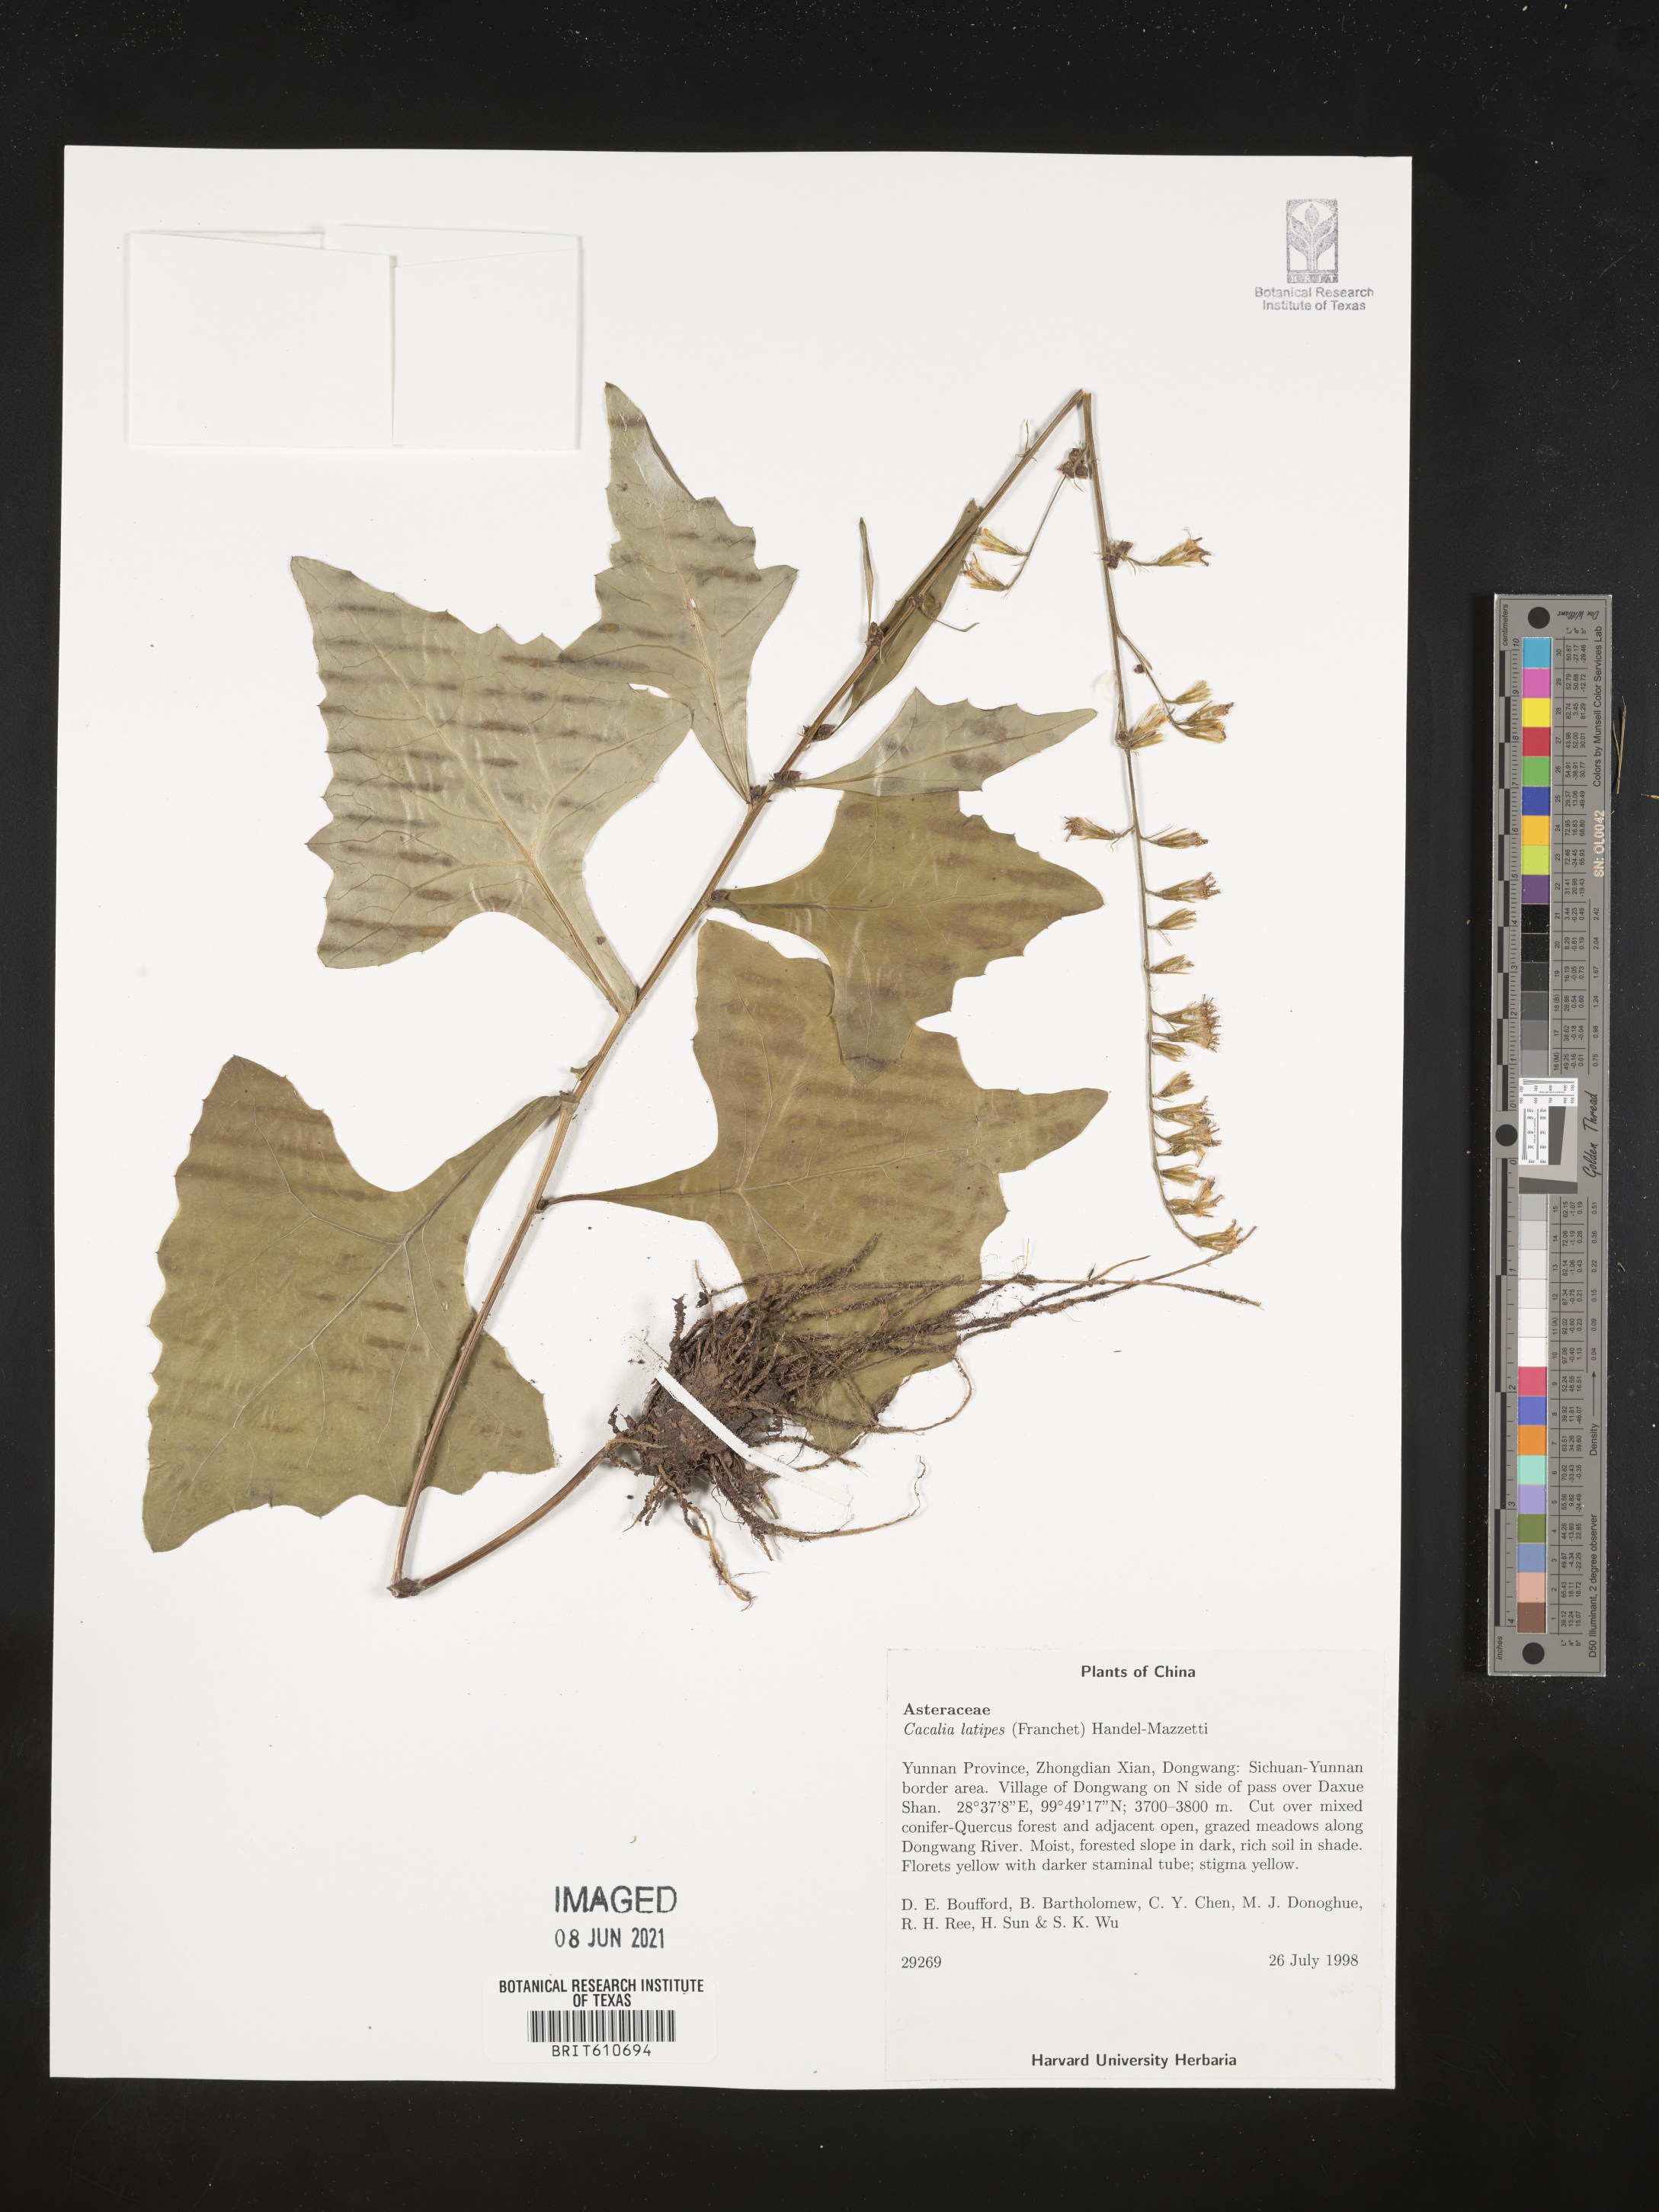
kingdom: Plantae
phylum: Tracheophyta
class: Magnoliopsida
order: Asterales
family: Asteraceae
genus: Parasenecio
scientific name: Parasenecio latipes
